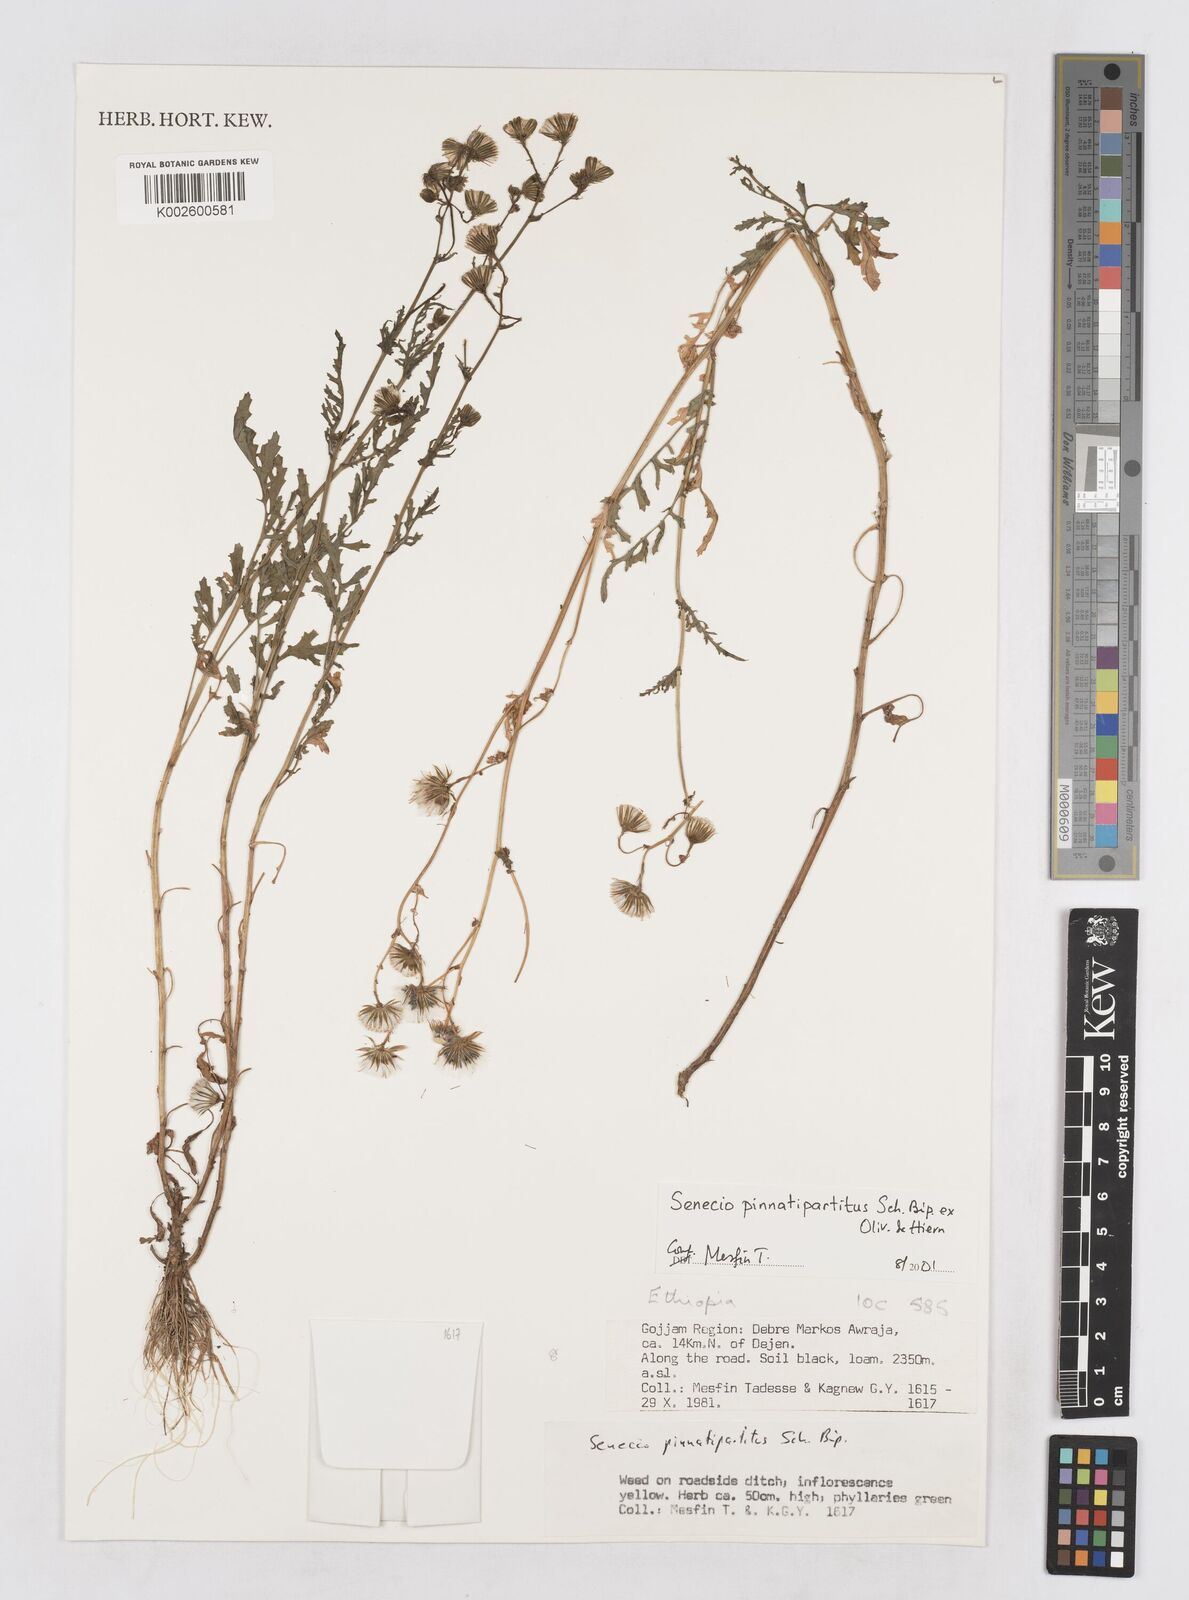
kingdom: Plantae
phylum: Tracheophyta
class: Magnoliopsida
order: Asterales
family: Asteraceae
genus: Senecio
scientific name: Senecio pinnatipartitus
